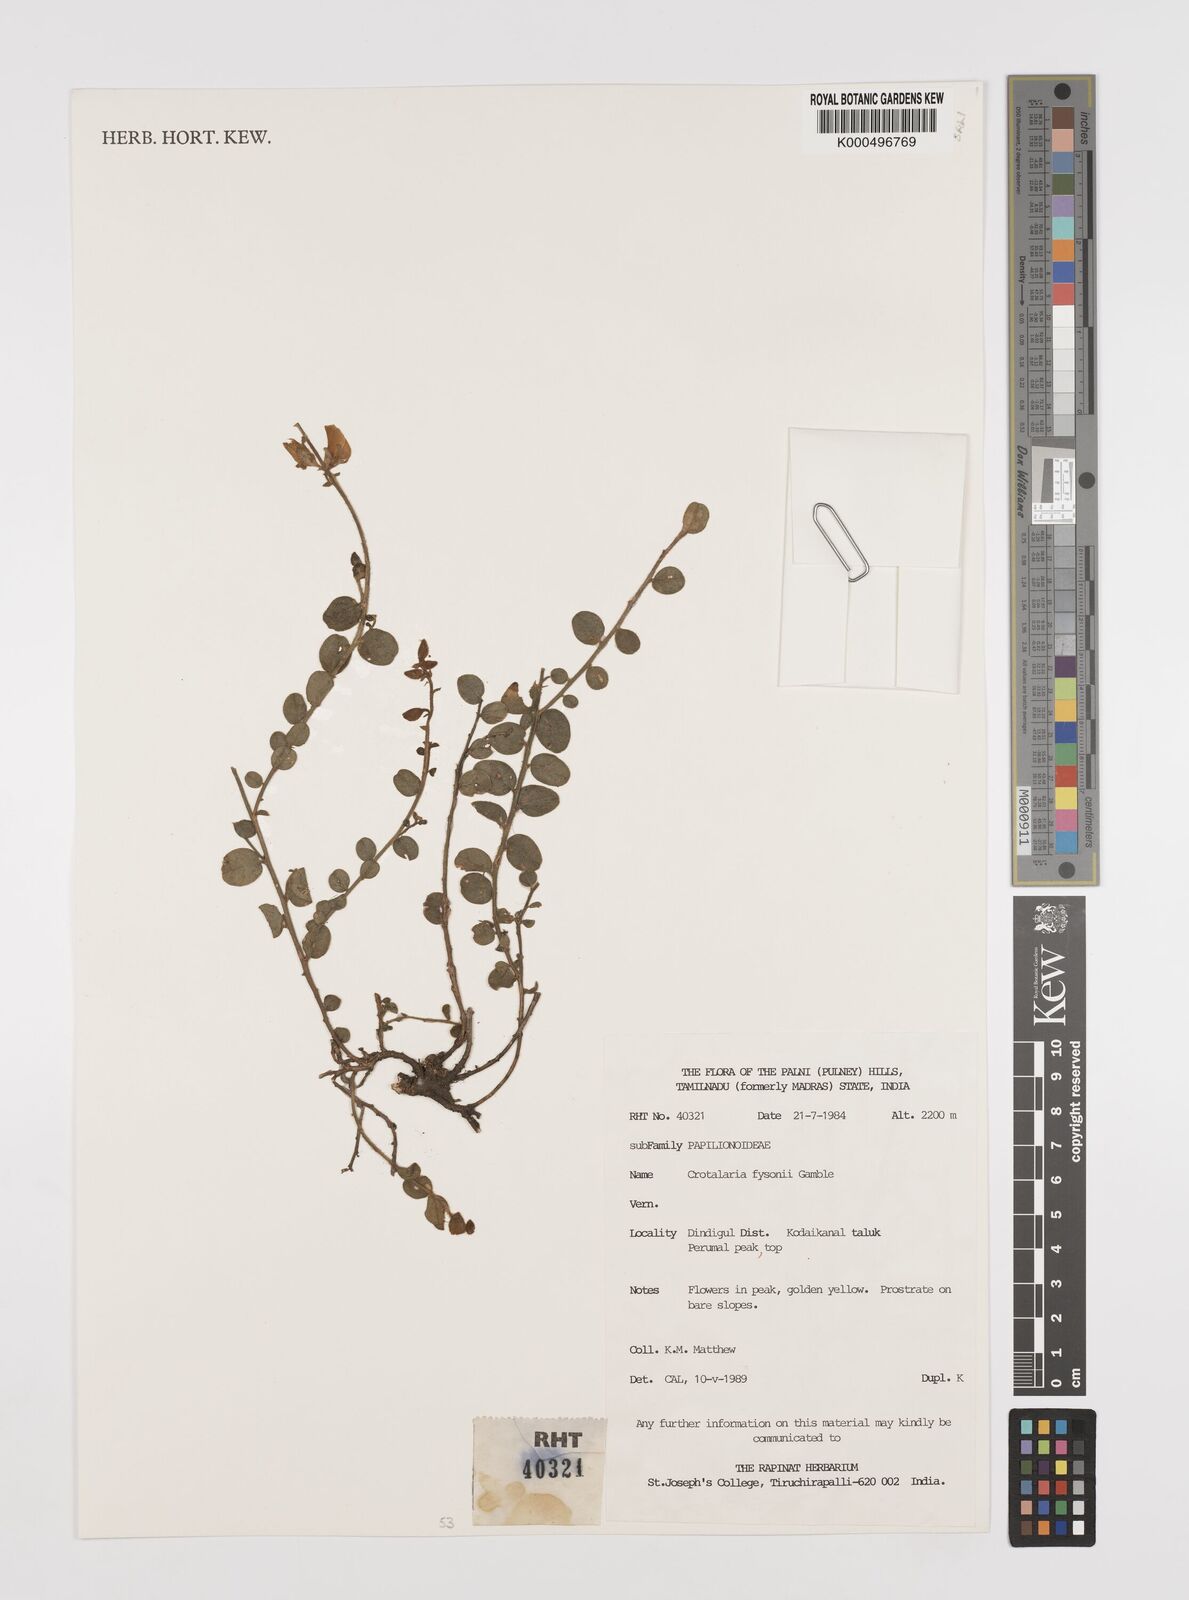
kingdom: Plantae
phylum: Tracheophyta
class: Magnoliopsida
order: Fabales
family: Fabaceae
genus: Crotalaria
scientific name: Crotalaria fysonii
